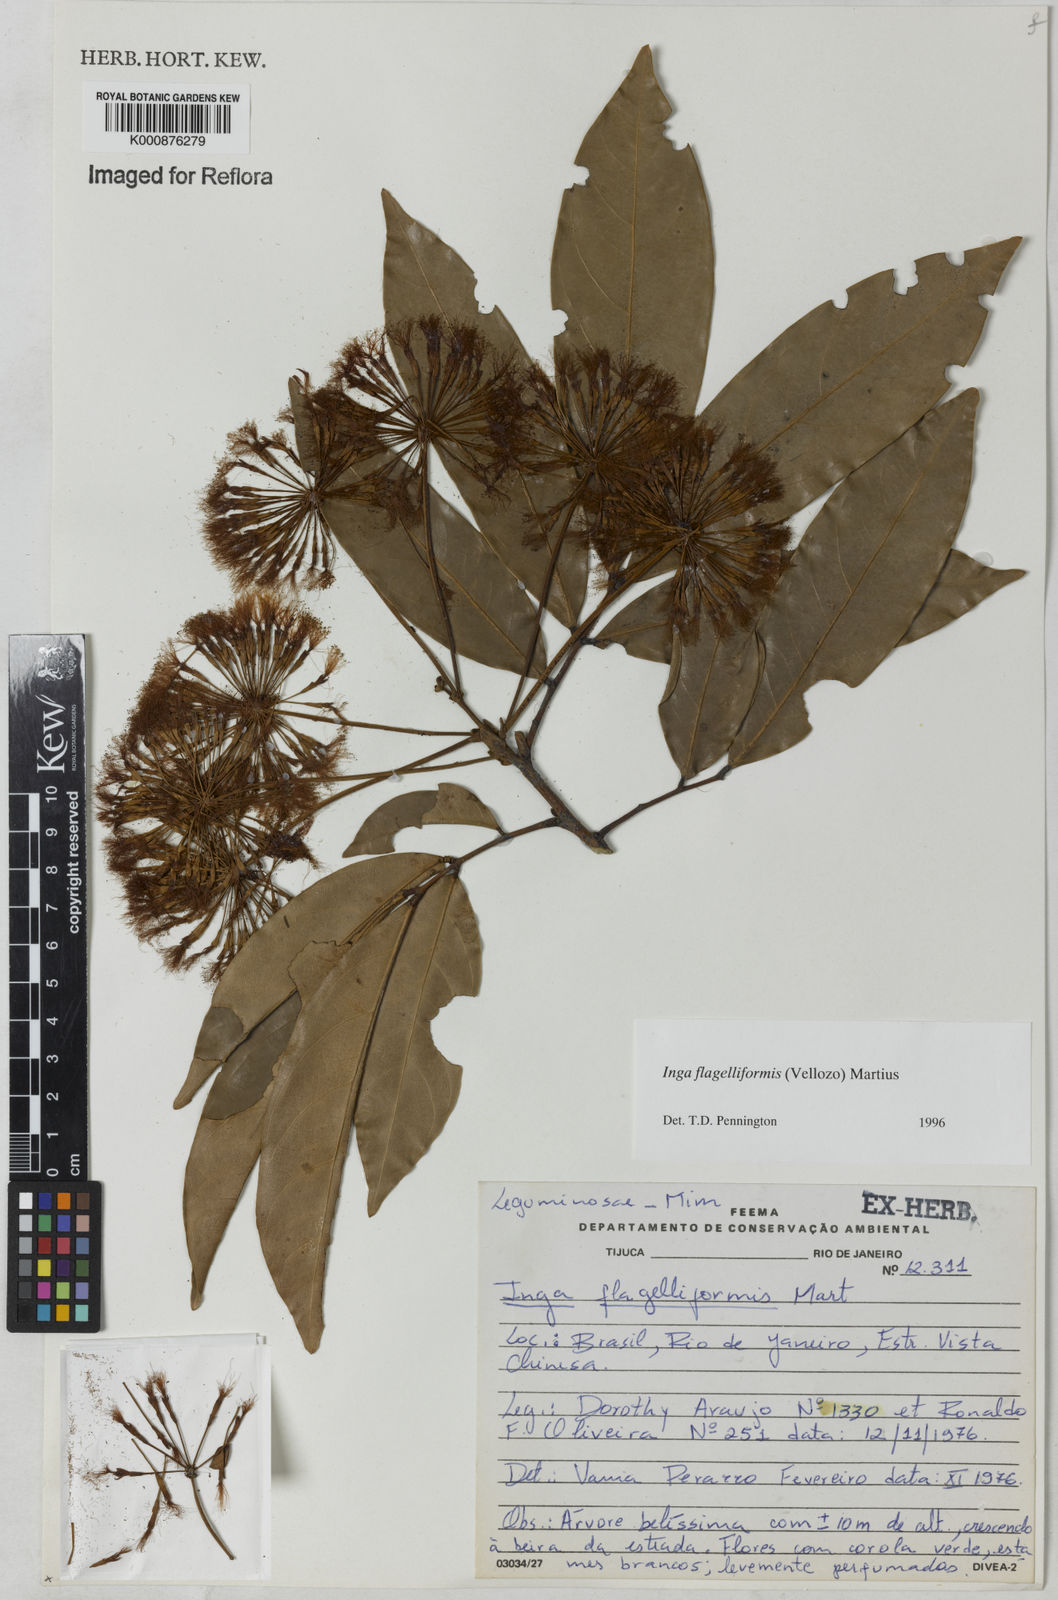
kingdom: Plantae
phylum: Tracheophyta
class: Magnoliopsida
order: Fabales
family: Fabaceae
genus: Inga
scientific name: Inga flagelliformis
